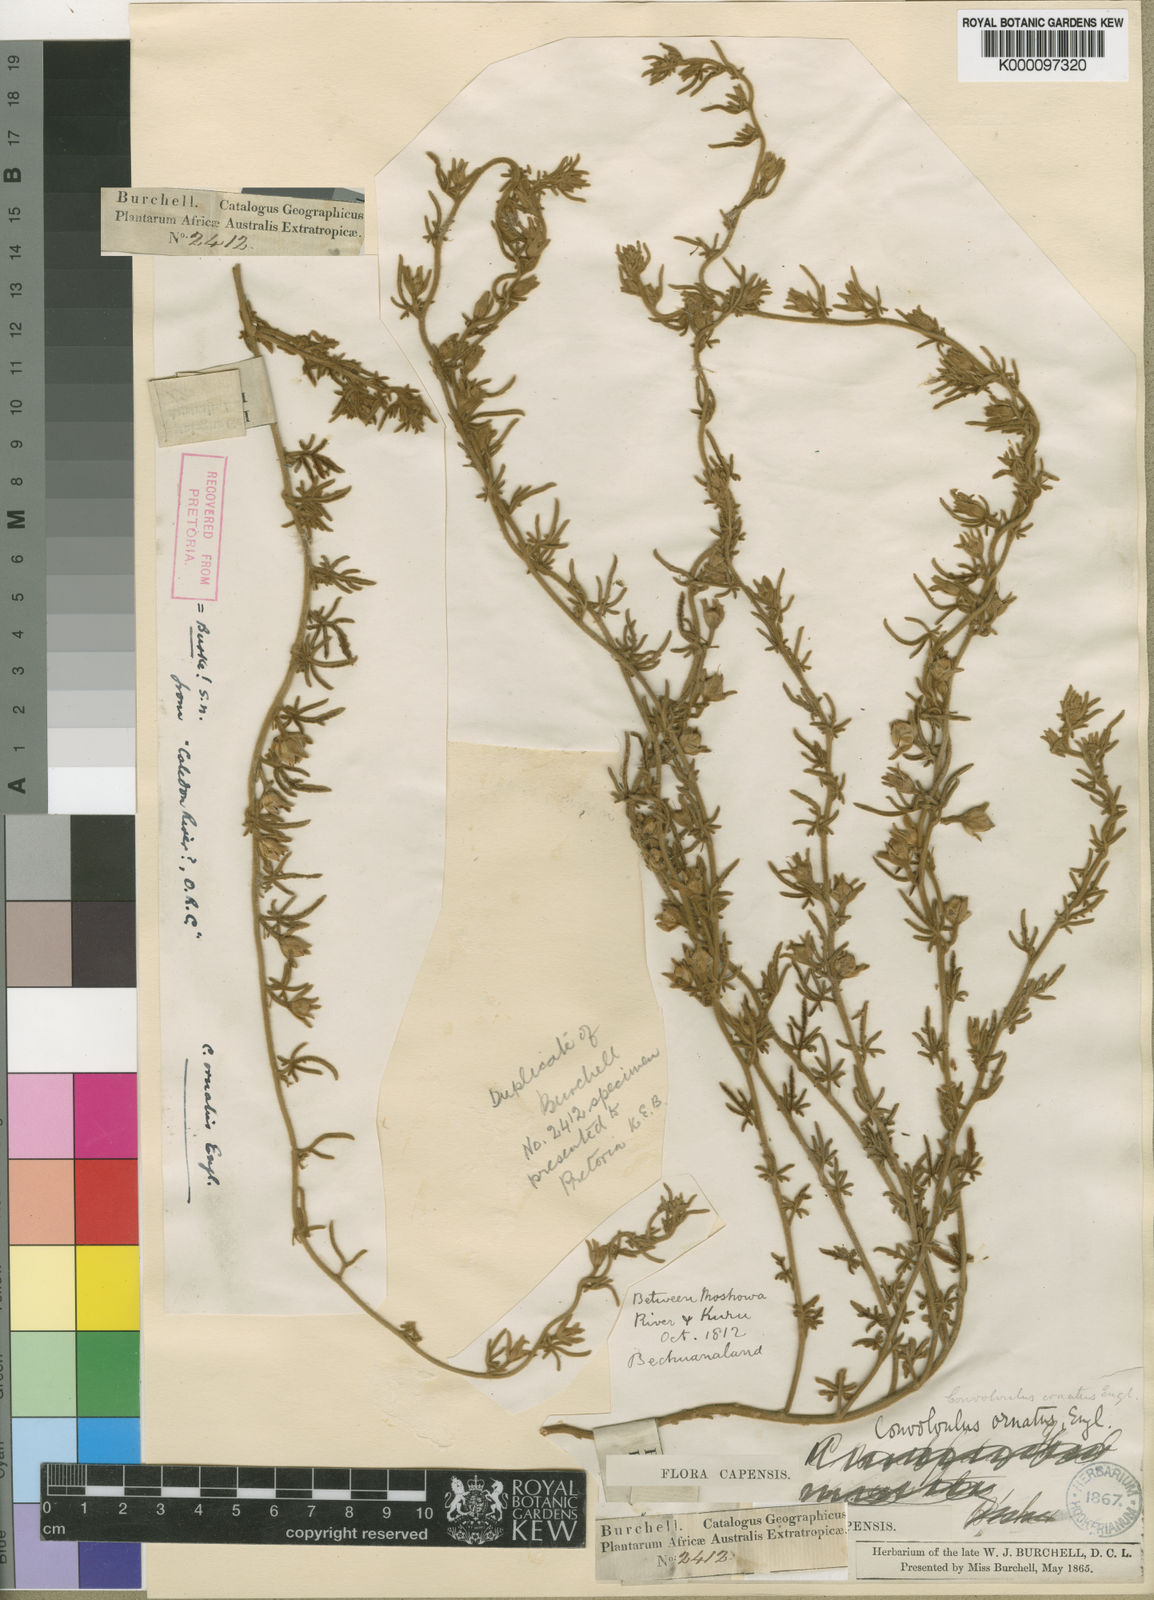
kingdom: Plantae
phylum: Tracheophyta
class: Magnoliopsida
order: Solanales
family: Convolvulaceae
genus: Convolvulus
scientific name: Convolvulus ocellatus
